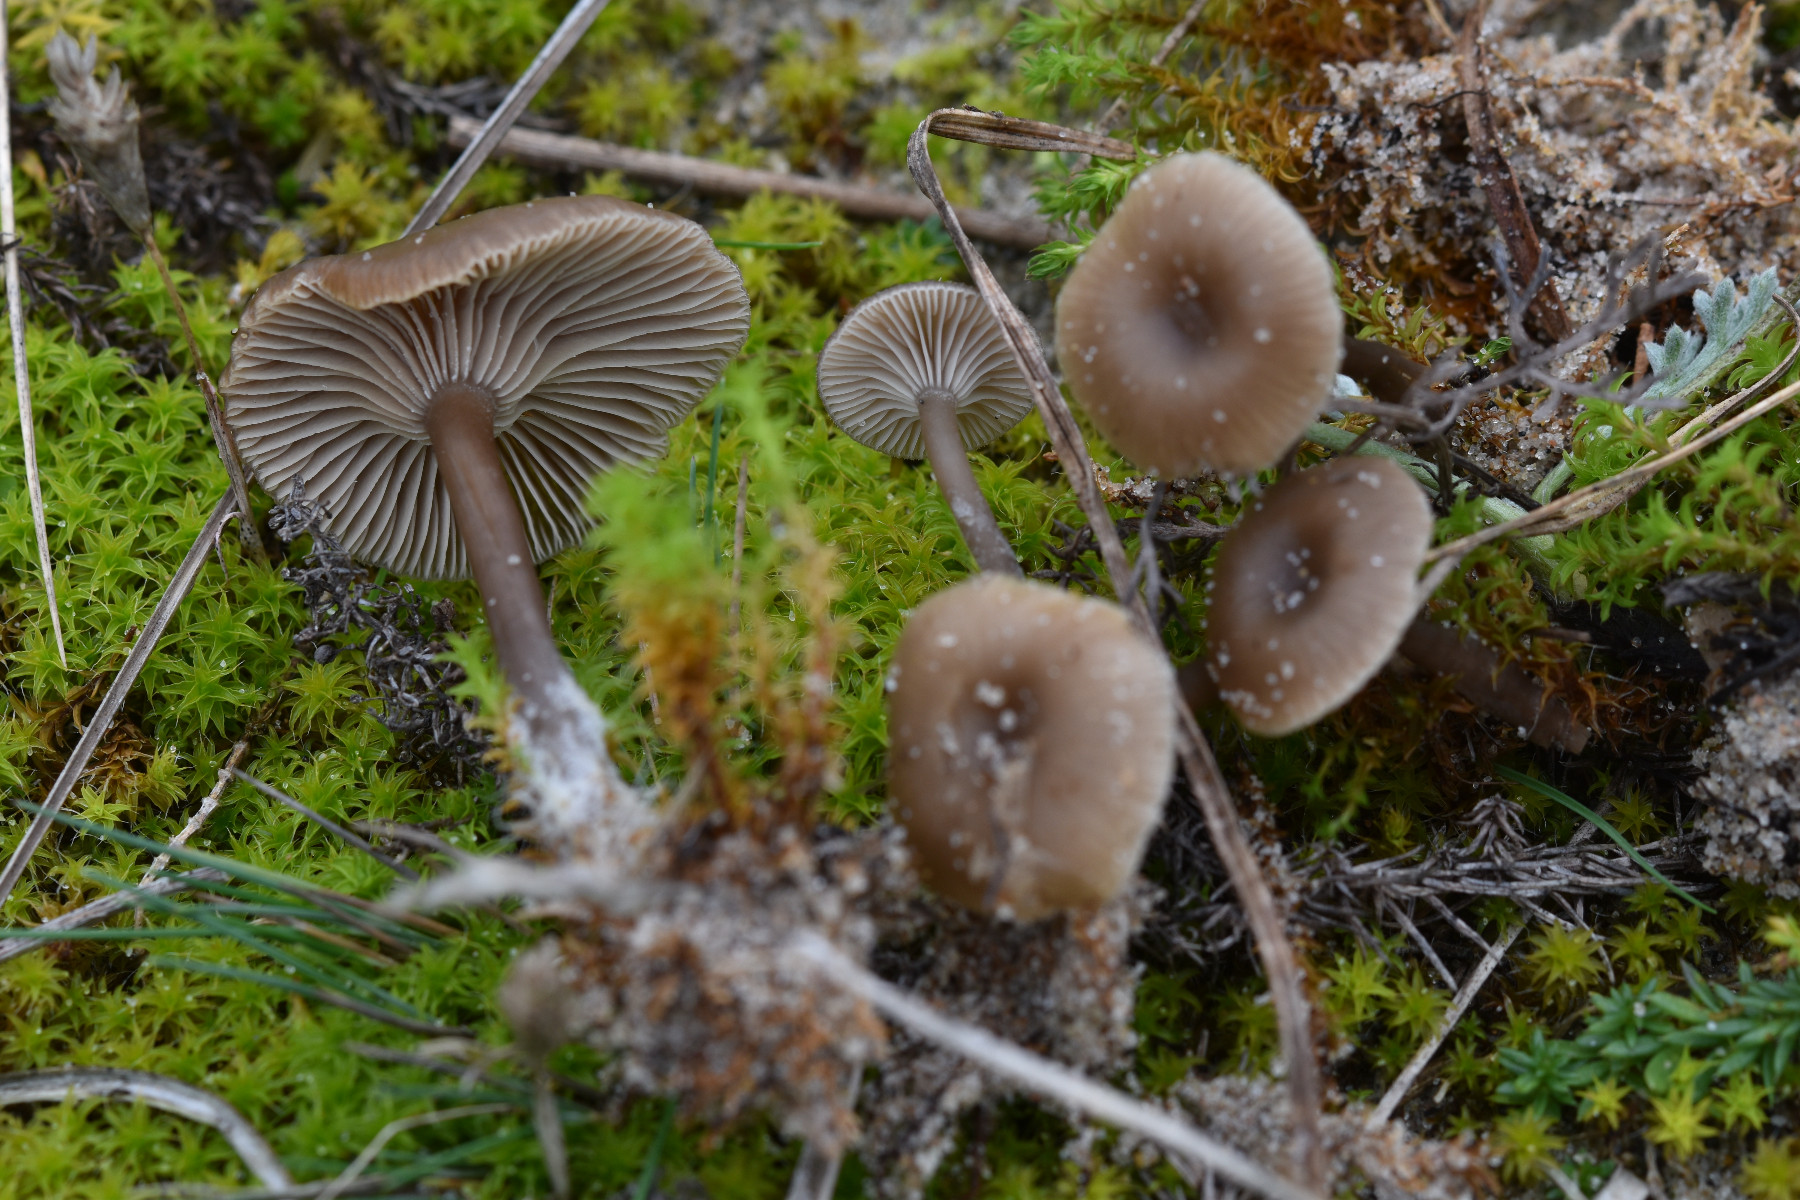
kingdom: Fungi
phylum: Basidiomycota
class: Agaricomycetes
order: Agaricales
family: Tricholomataceae
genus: Clitocybe
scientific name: Clitocybe barbularum
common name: klit-tragthat
